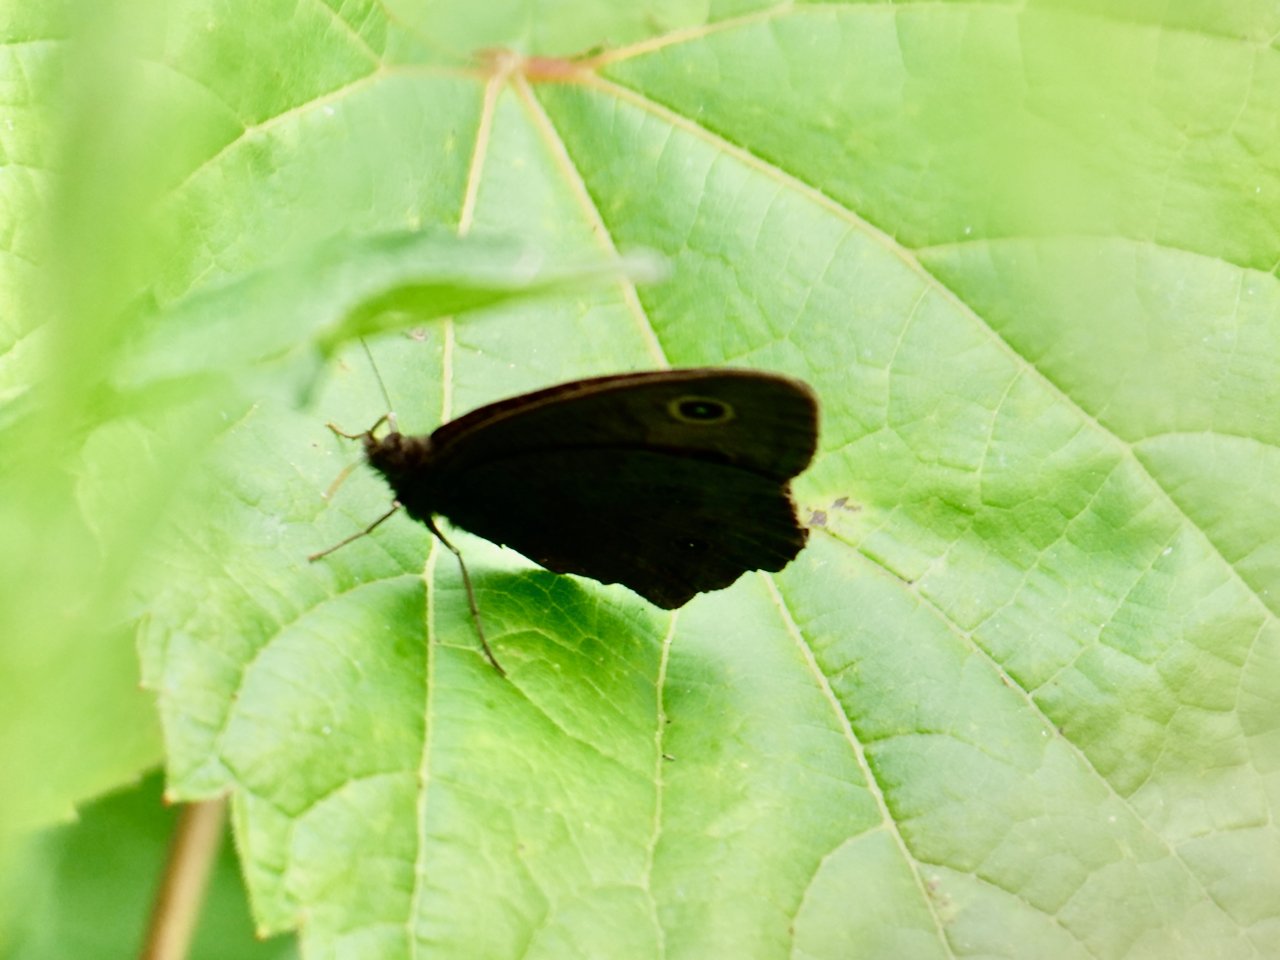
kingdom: Animalia
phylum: Arthropoda
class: Insecta
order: Lepidoptera
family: Nymphalidae
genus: Cercyonis
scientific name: Cercyonis pegala
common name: Common Wood-Nymph
